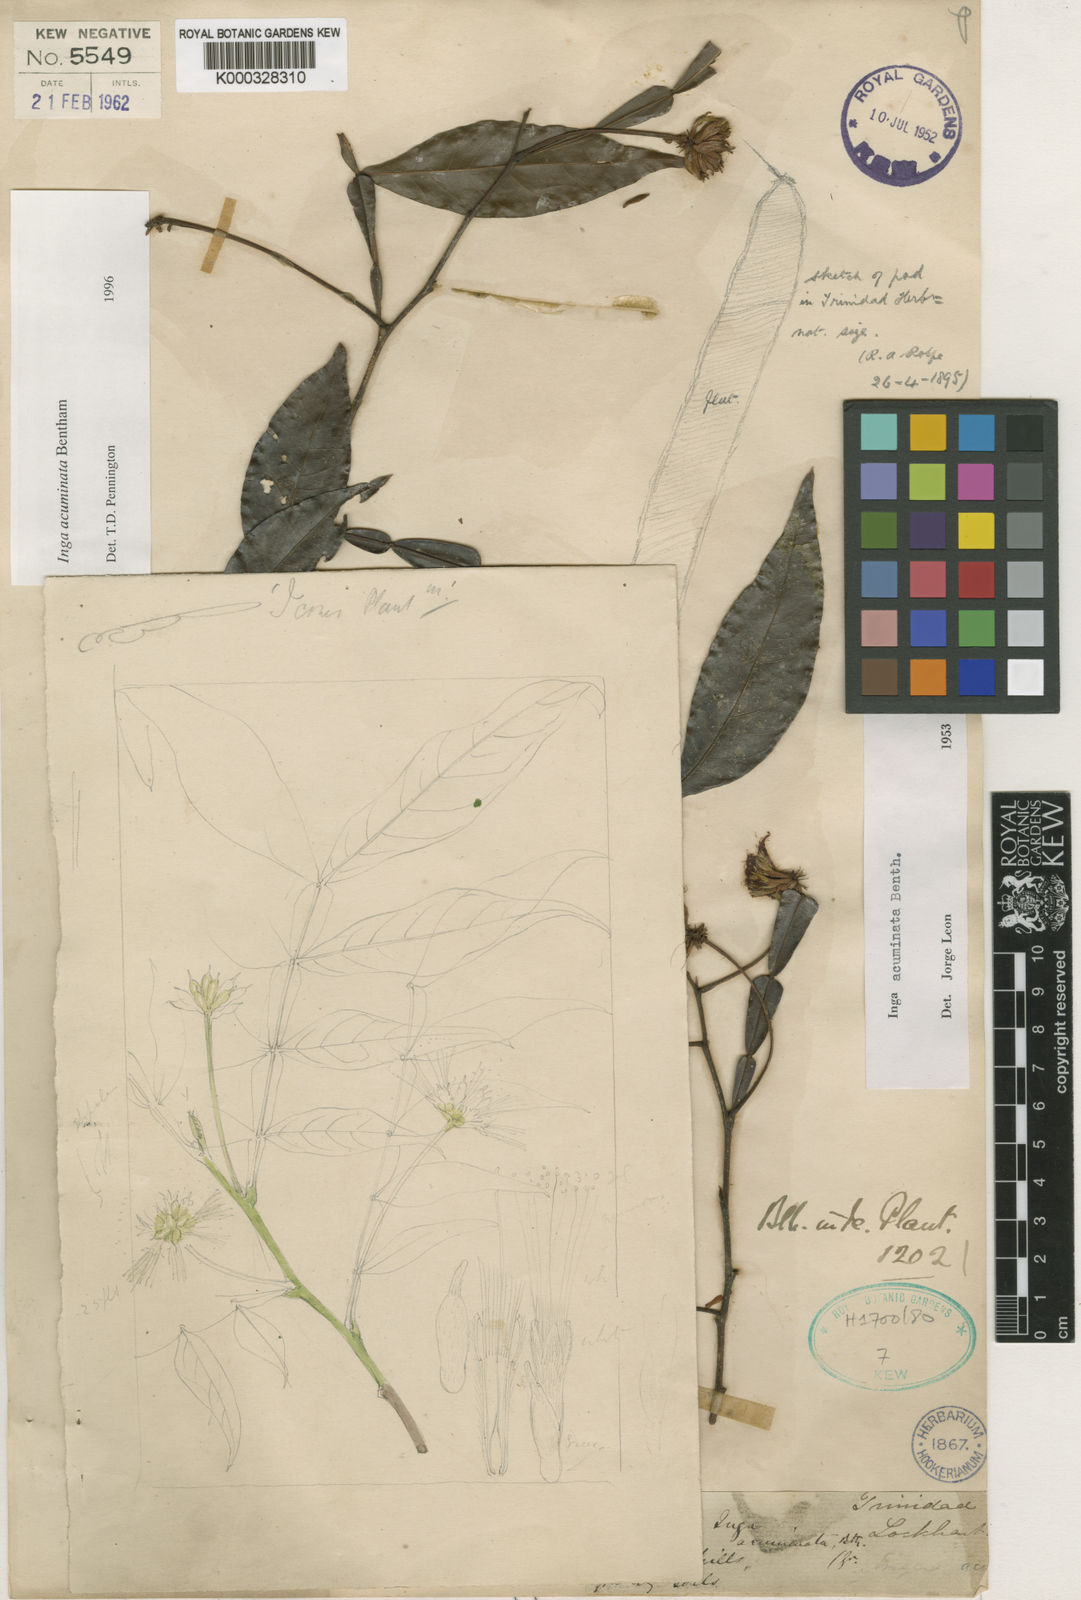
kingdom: Plantae
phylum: Tracheophyta
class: Magnoliopsida
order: Fabales
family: Fabaceae
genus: Inga
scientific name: Inga acuminata
